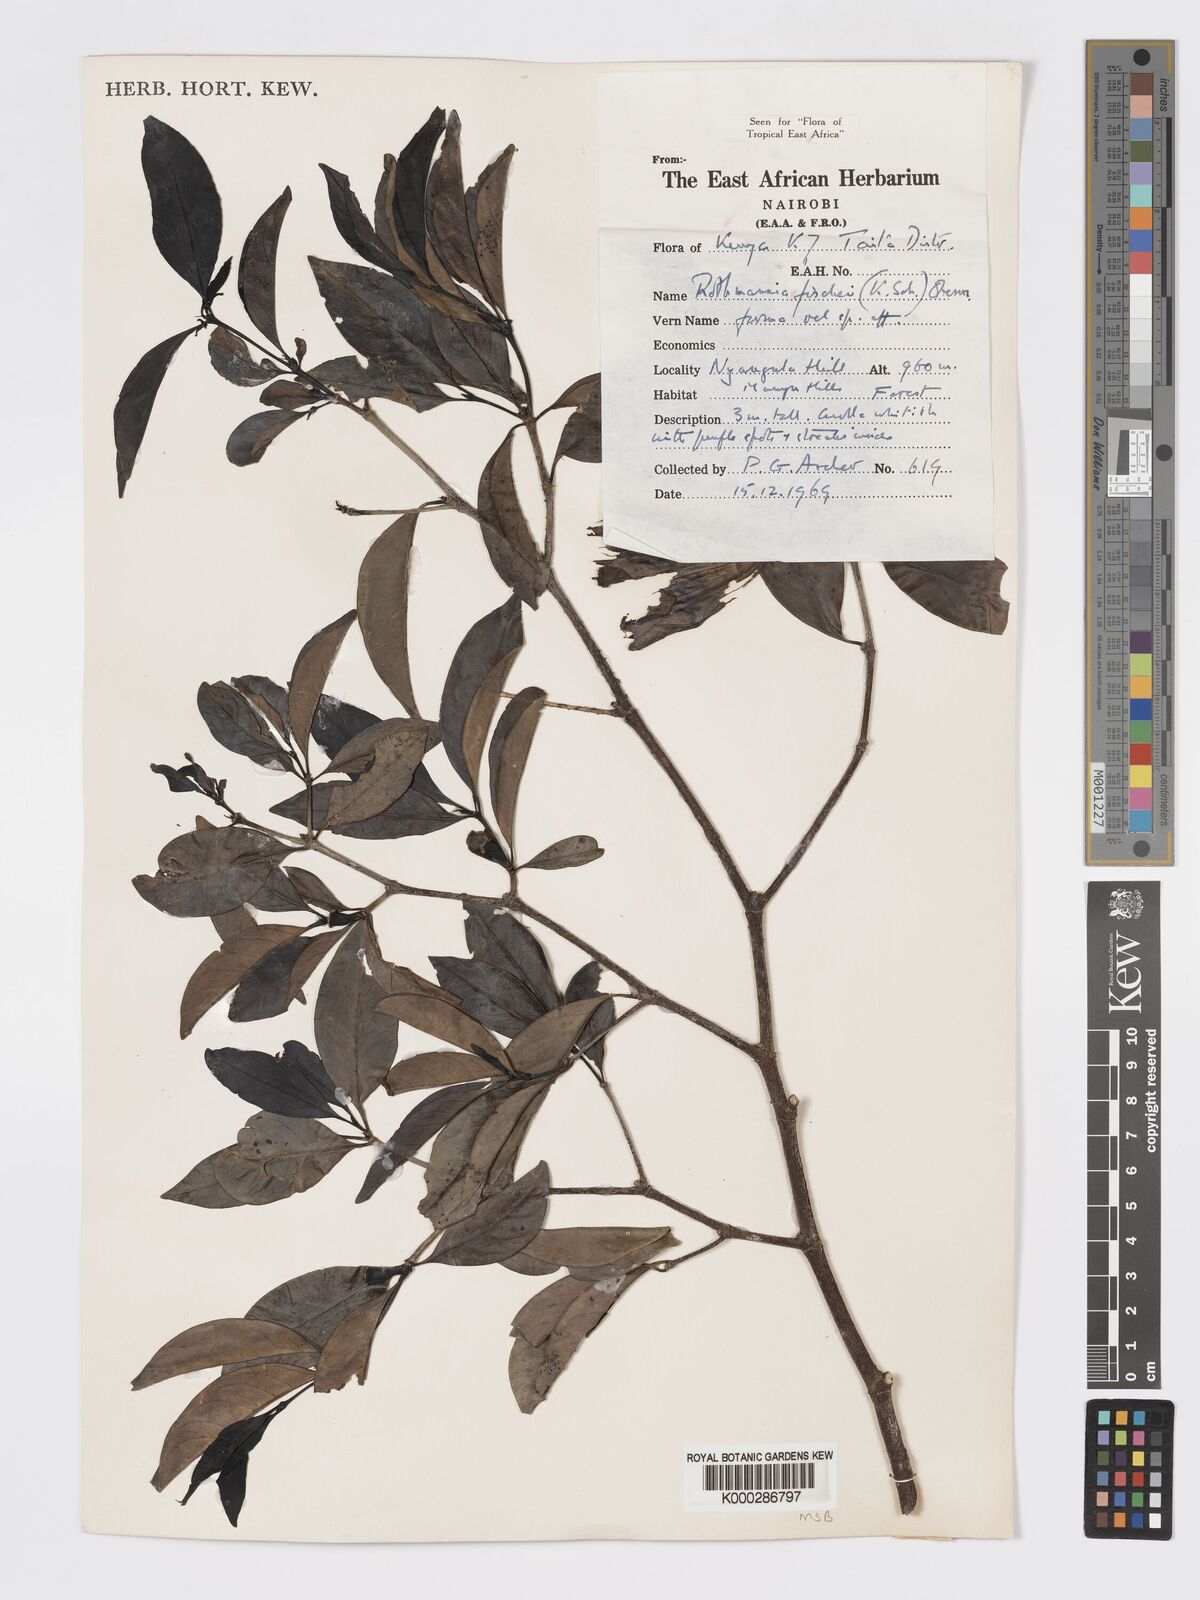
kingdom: Plantae
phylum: Tracheophyta
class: Magnoliopsida
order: Gentianales
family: Rubiaceae
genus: Rothmannia
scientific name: Rothmannia ravae
